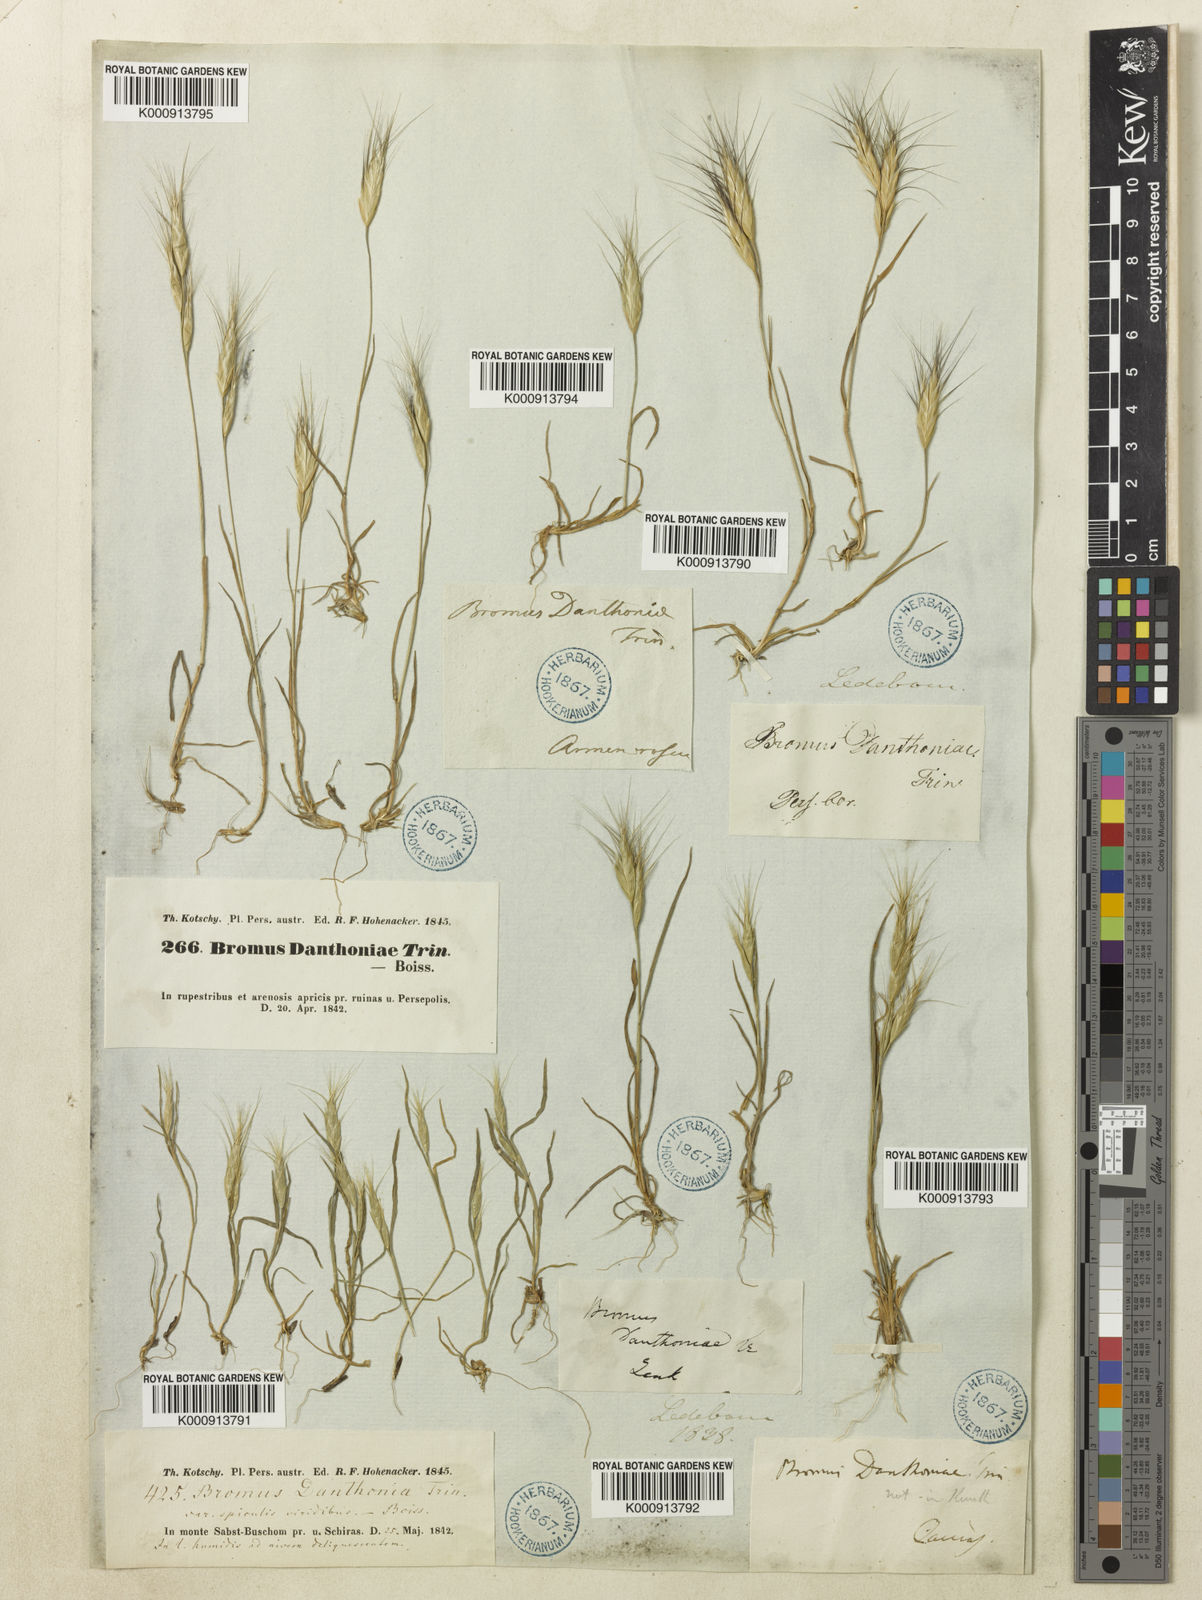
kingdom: Plantae
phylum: Tracheophyta
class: Liliopsida
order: Poales
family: Poaceae
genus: Bromus
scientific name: Bromus danthoniae
